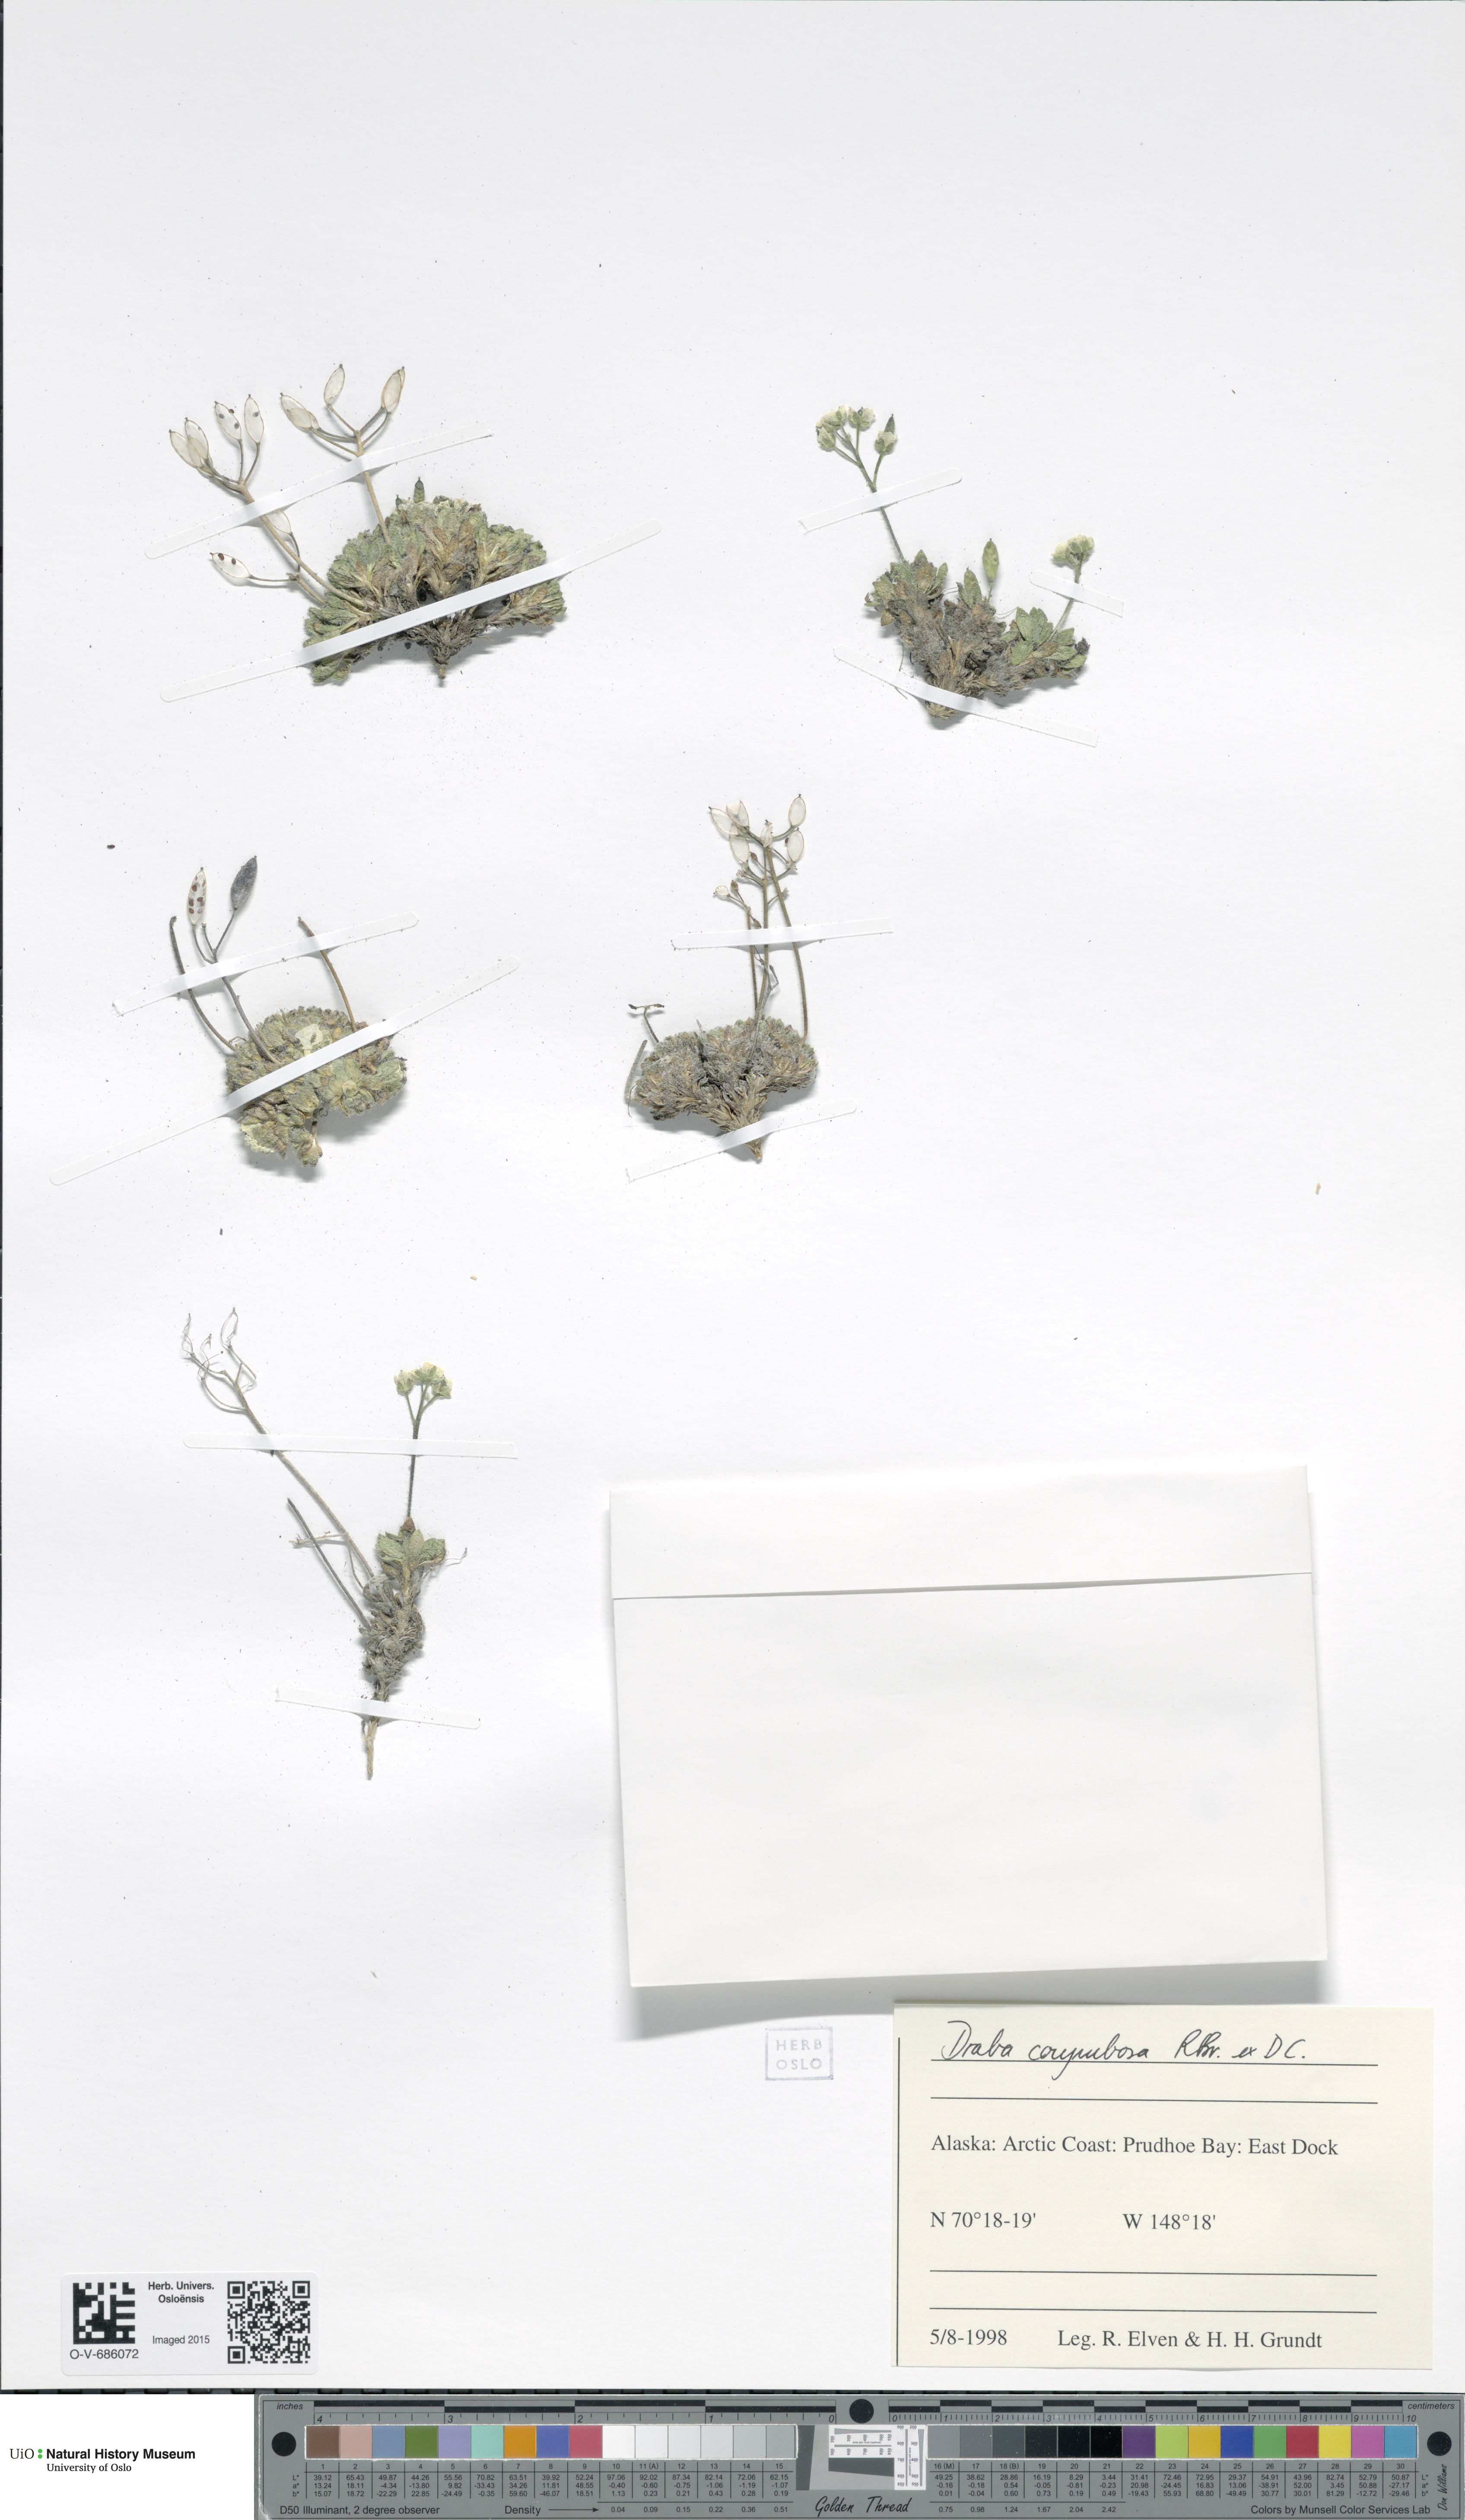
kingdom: Plantae
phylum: Tracheophyta
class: Magnoliopsida
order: Brassicales
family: Brassicaceae
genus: Draba
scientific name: Draba corymbosa
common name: Cushion whitlow-grass
